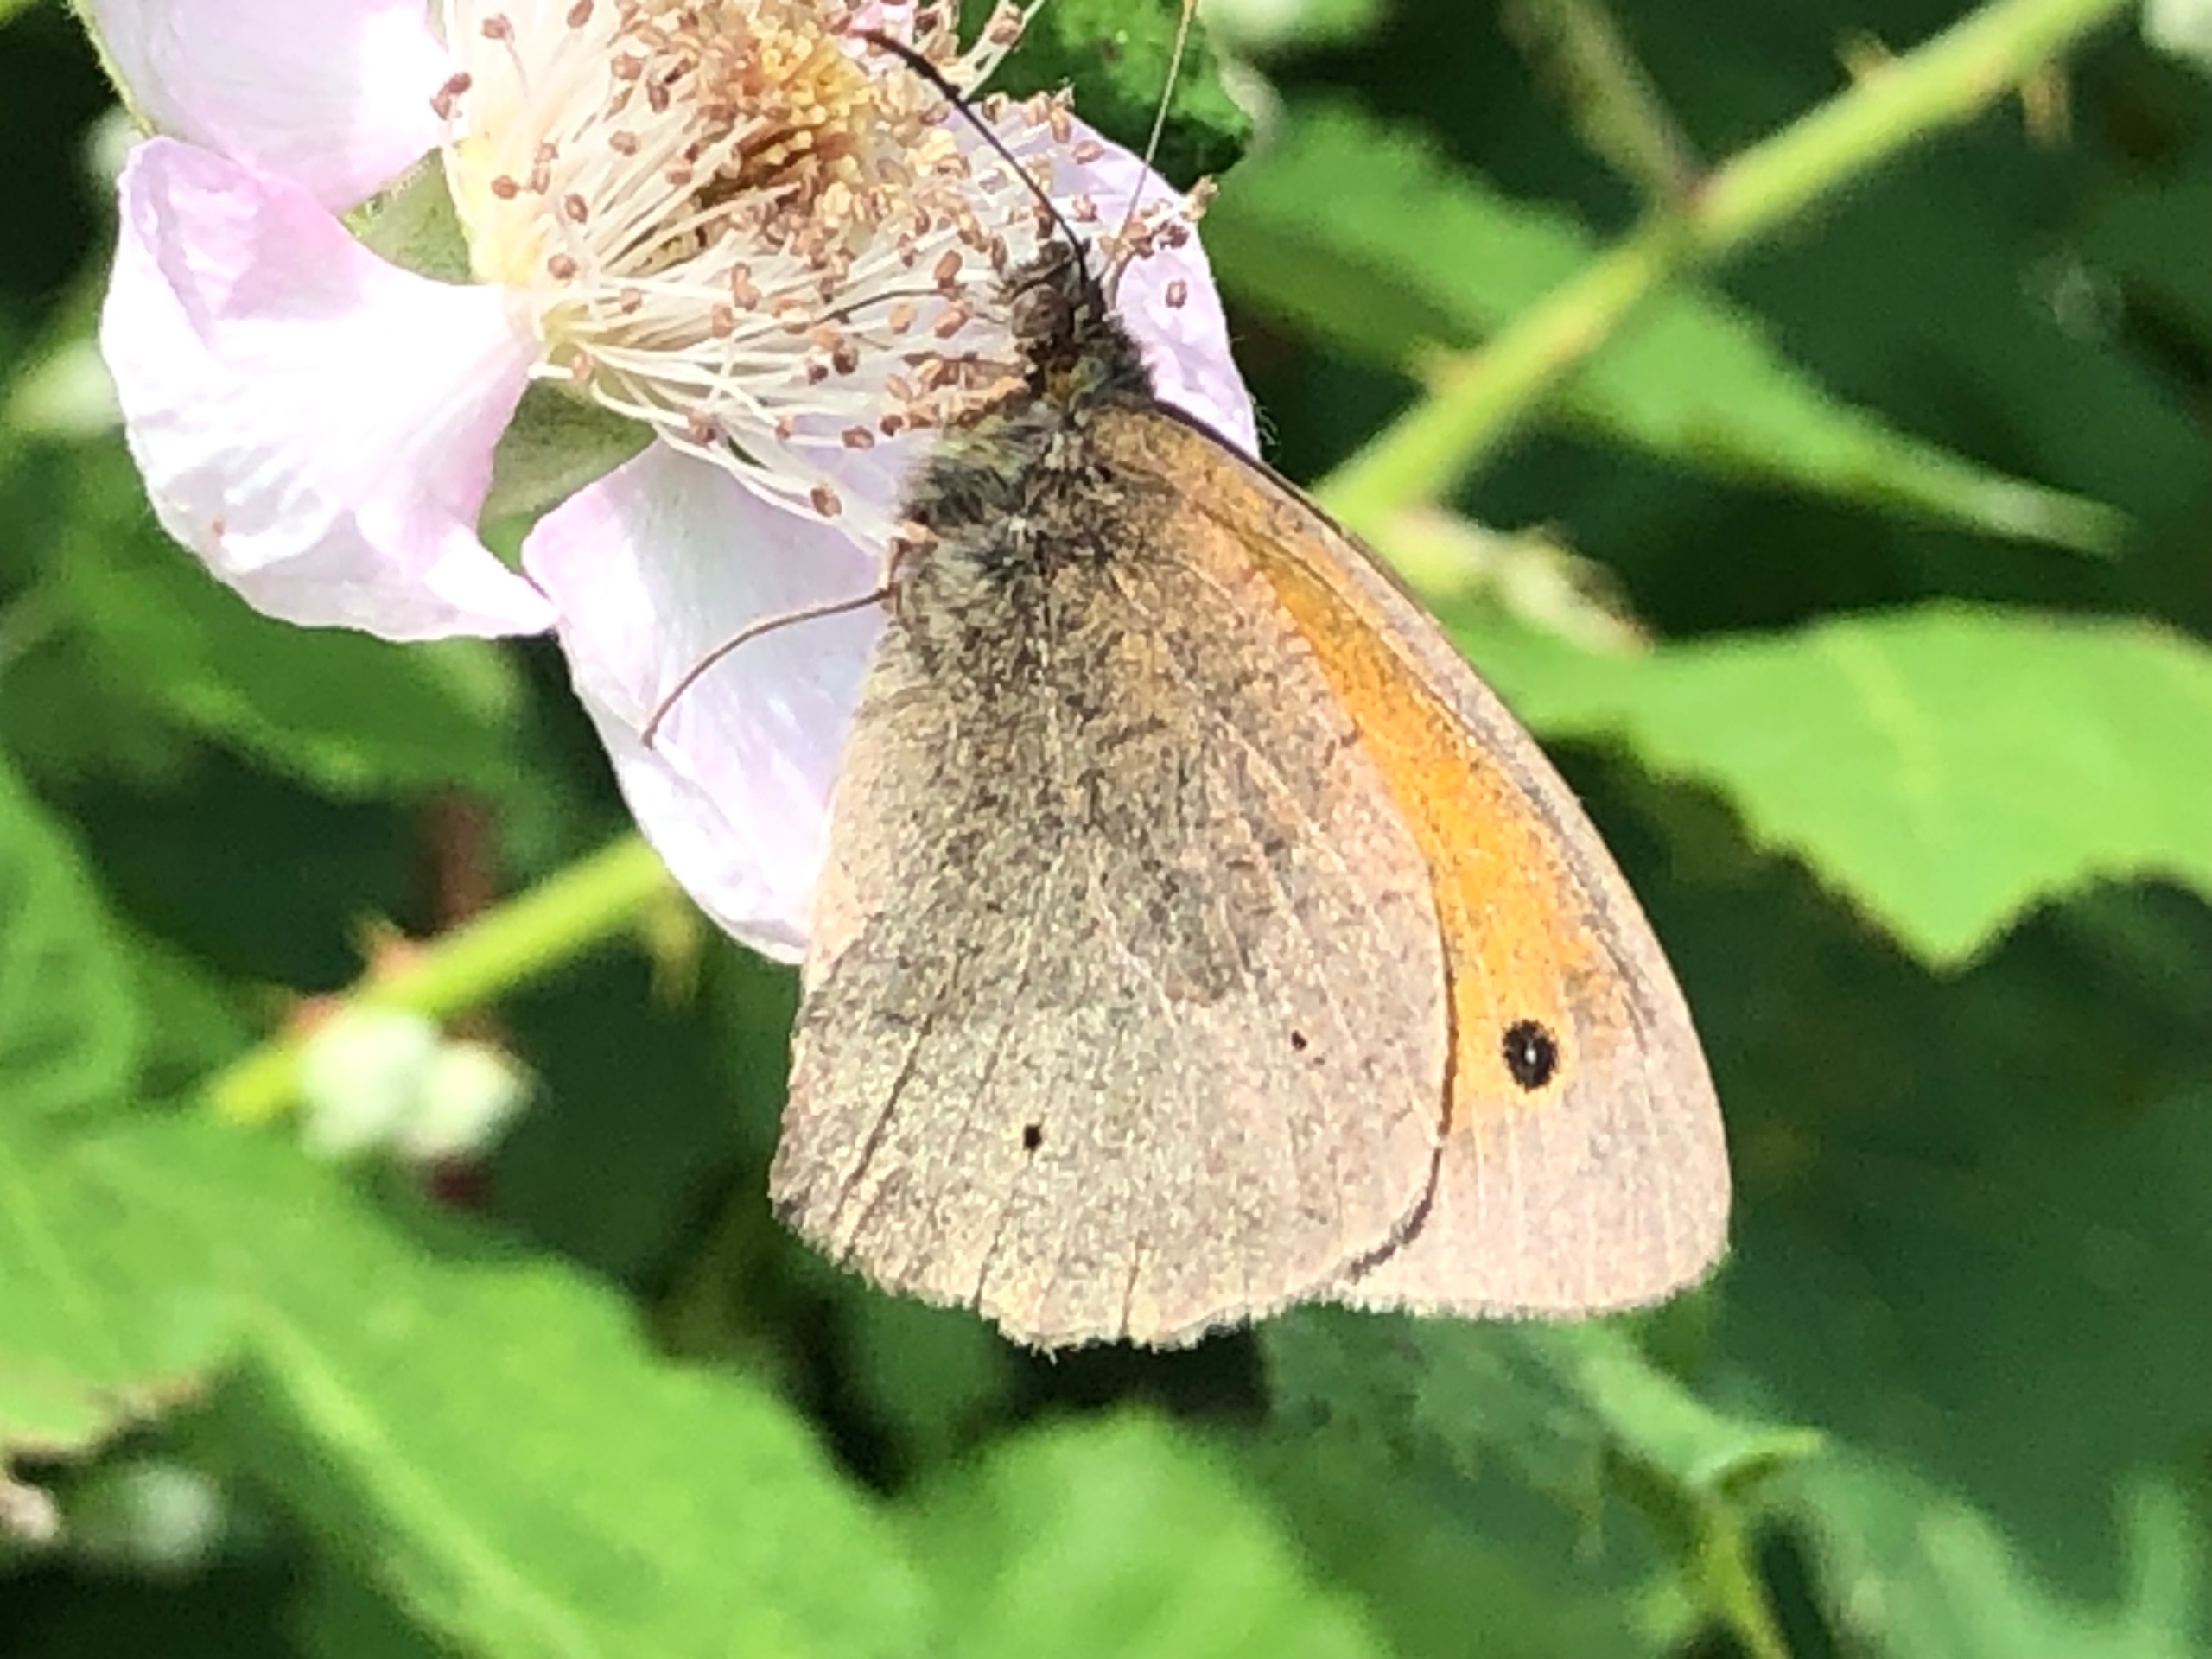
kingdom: Animalia
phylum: Arthropoda
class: Insecta
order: Lepidoptera
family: Nymphalidae
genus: Maniola
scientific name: Maniola jurtina
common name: Græsrandøje
